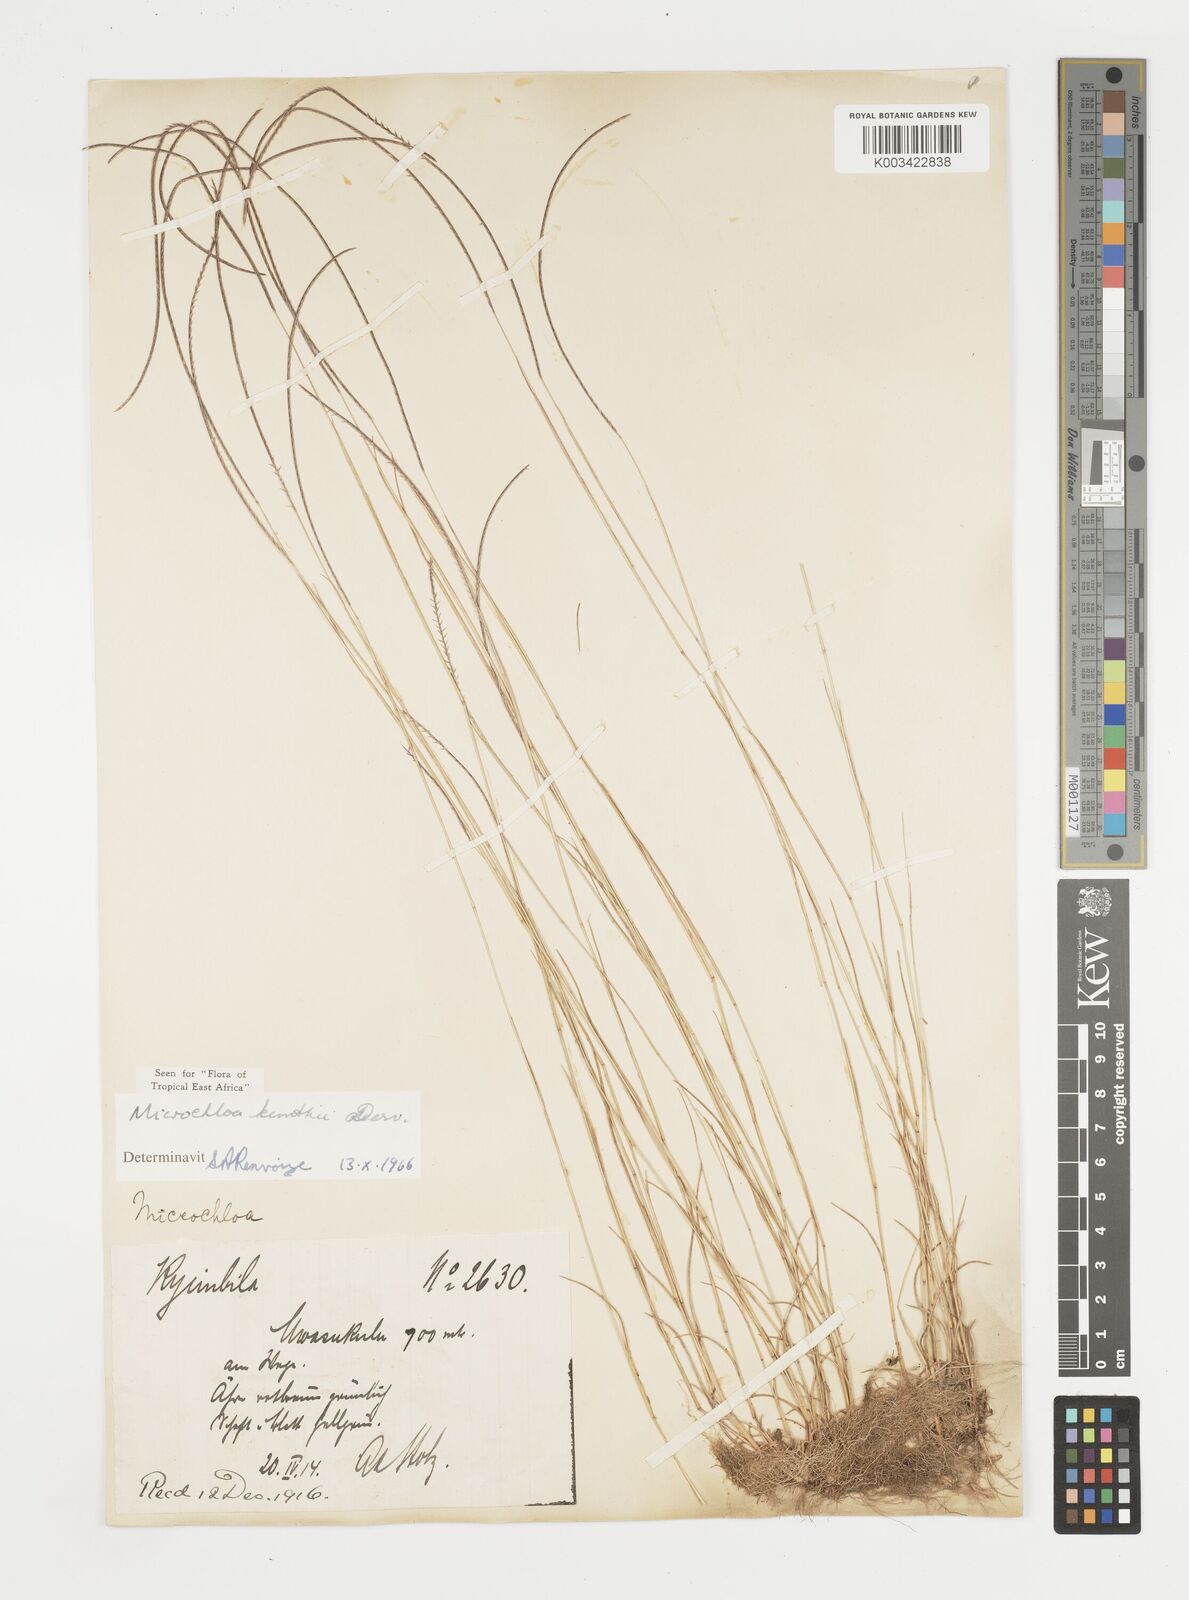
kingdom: Plantae
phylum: Tracheophyta
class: Liliopsida
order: Poales
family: Poaceae
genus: Microchloa
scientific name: Microchloa kunthii
